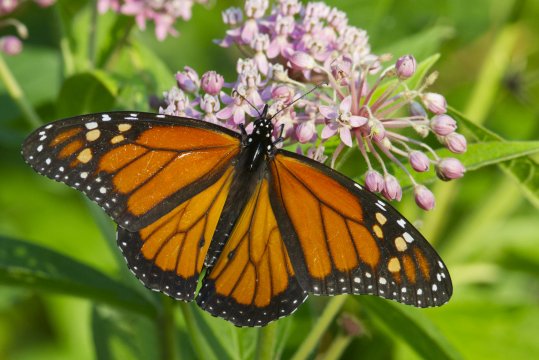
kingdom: Animalia
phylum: Arthropoda
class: Insecta
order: Lepidoptera
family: Nymphalidae
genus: Danaus
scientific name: Danaus plexippus
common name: Monarch
